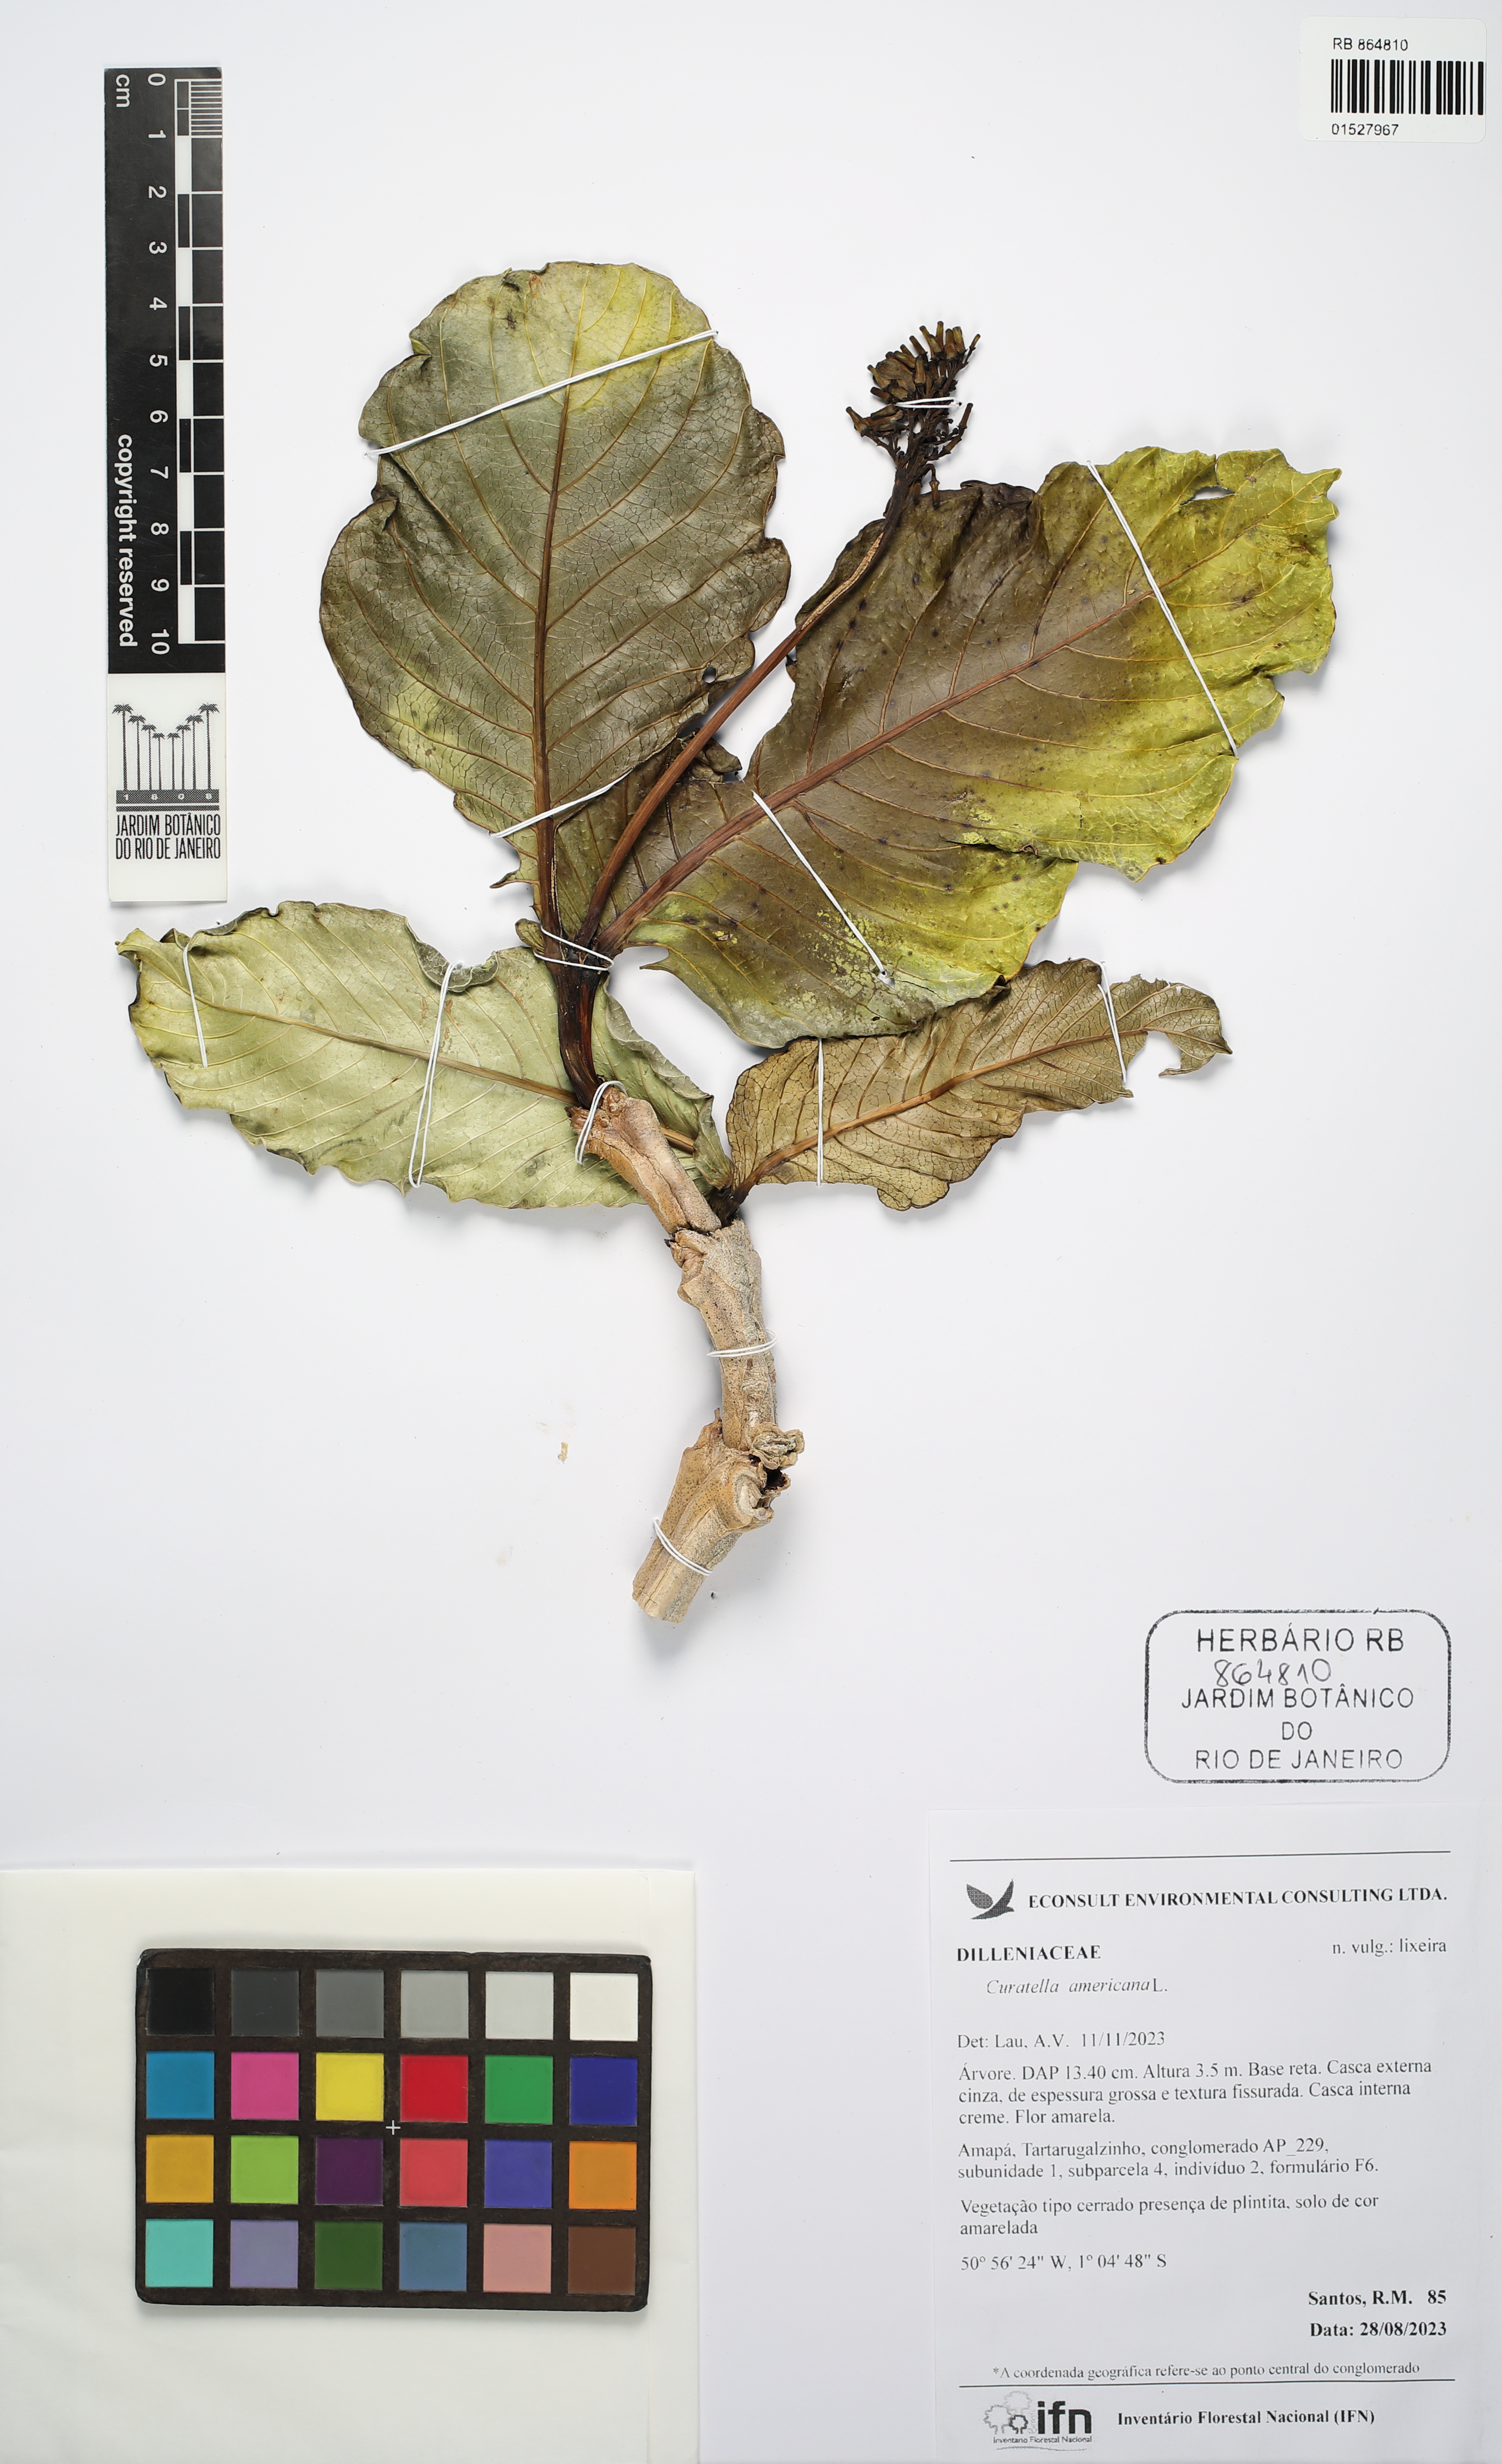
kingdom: Plantae
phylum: Tracheophyta
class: Magnoliopsida
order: Dilleniales
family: Dilleniaceae
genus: Curatella
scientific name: Curatella americana
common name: Sandpaper tree
